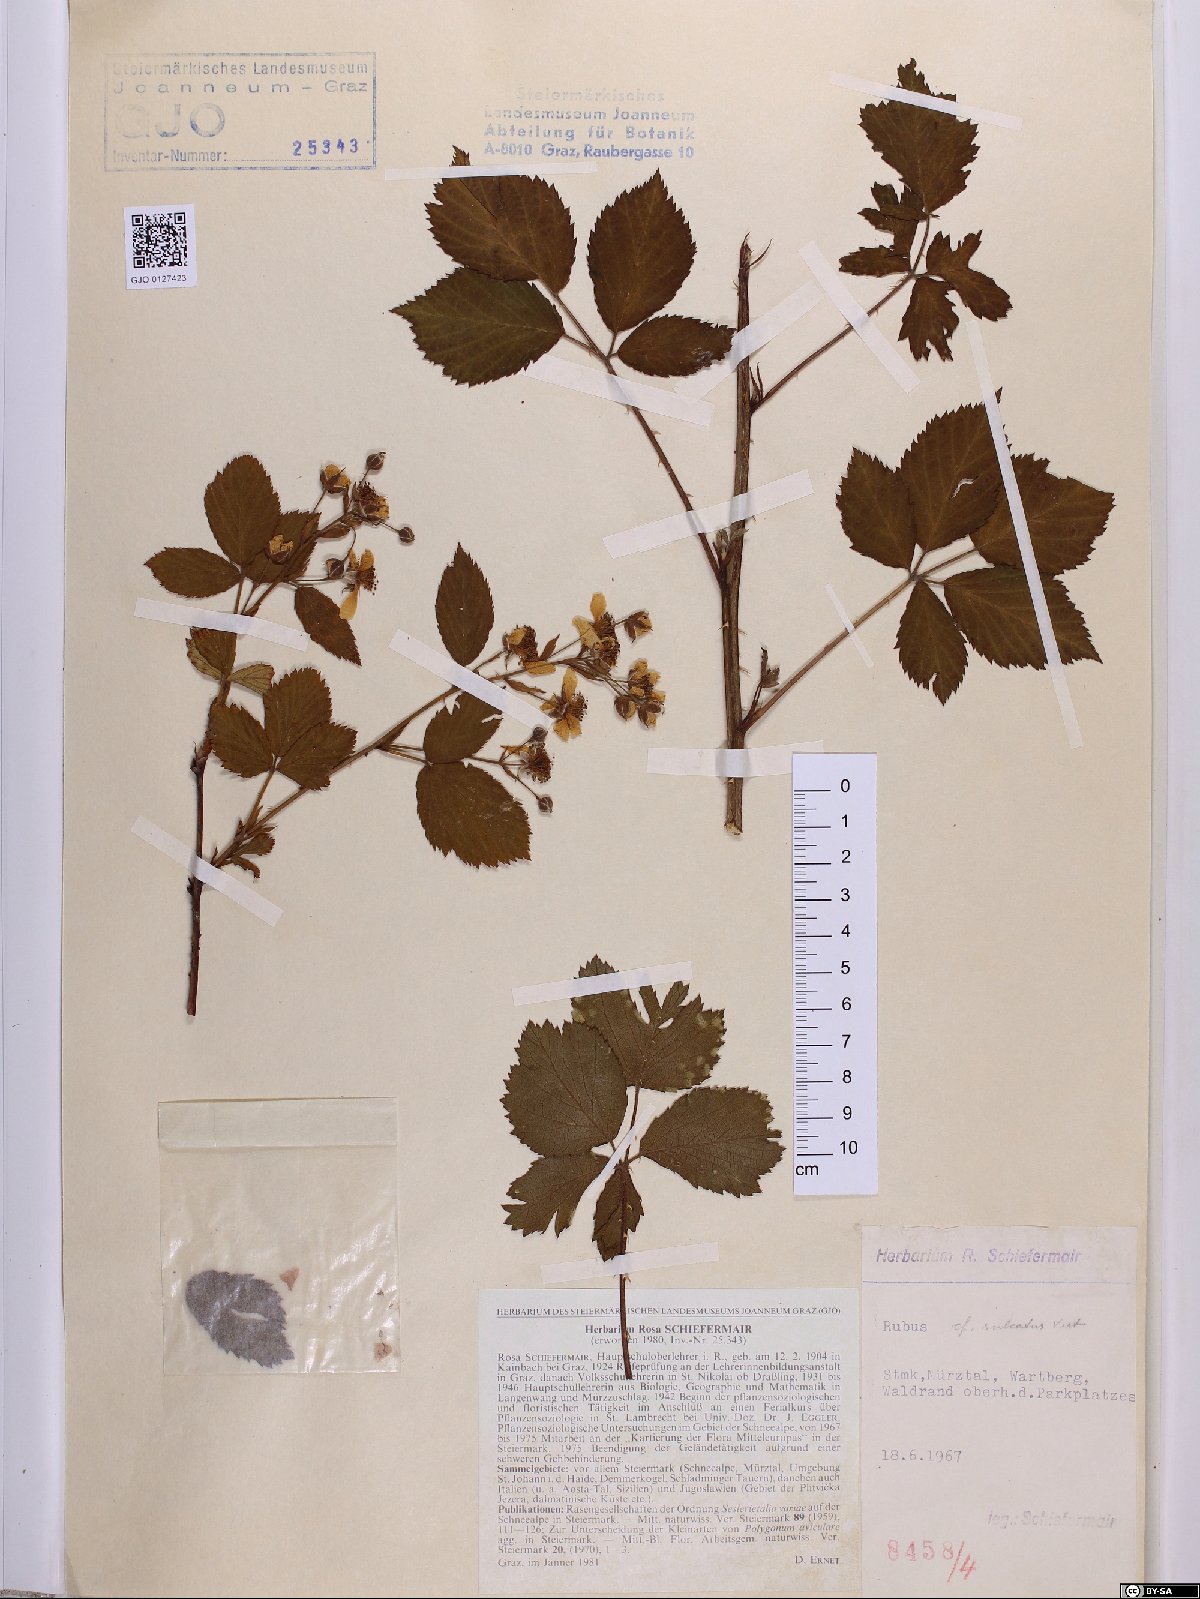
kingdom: Plantae
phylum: Tracheophyta
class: Magnoliopsida
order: Rosales
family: Rosaceae
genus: Rubus
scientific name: Rubus sulcatus
